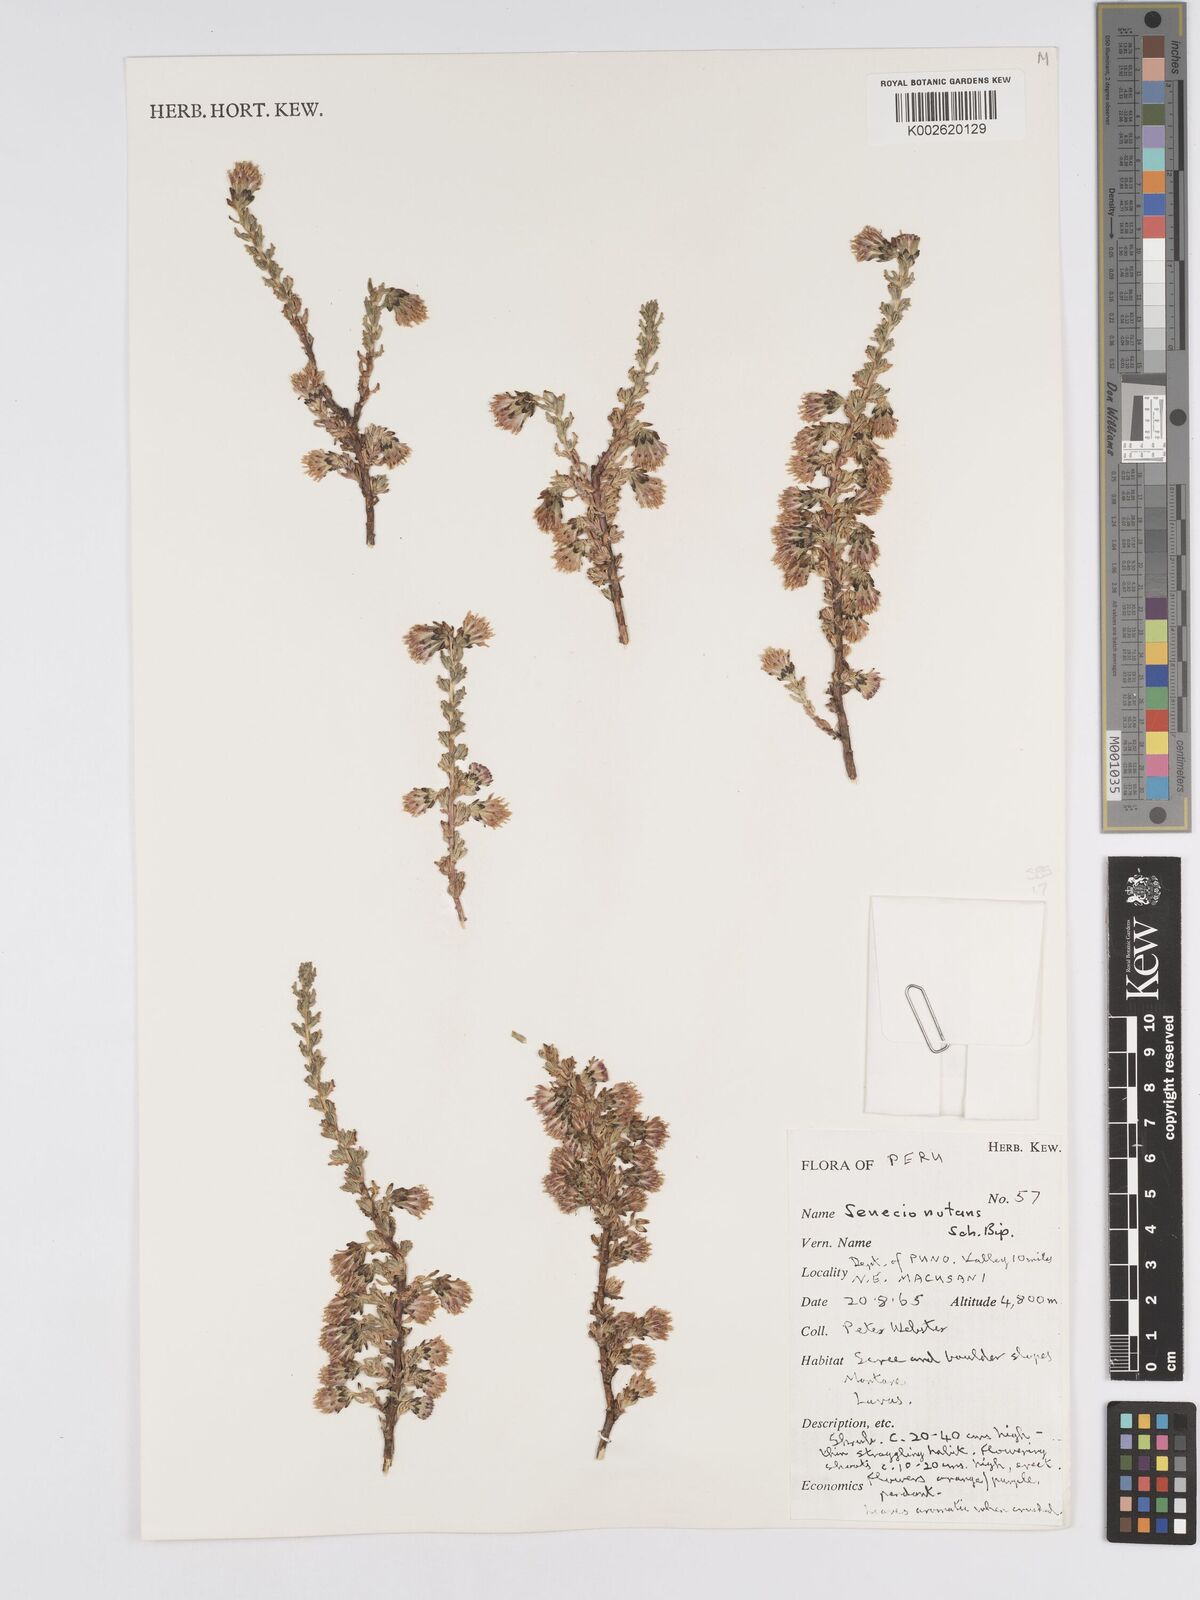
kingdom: Plantae
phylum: Tracheophyta
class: Magnoliopsida
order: Asterales
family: Asteraceae
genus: Senecio
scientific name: Senecio nutans
